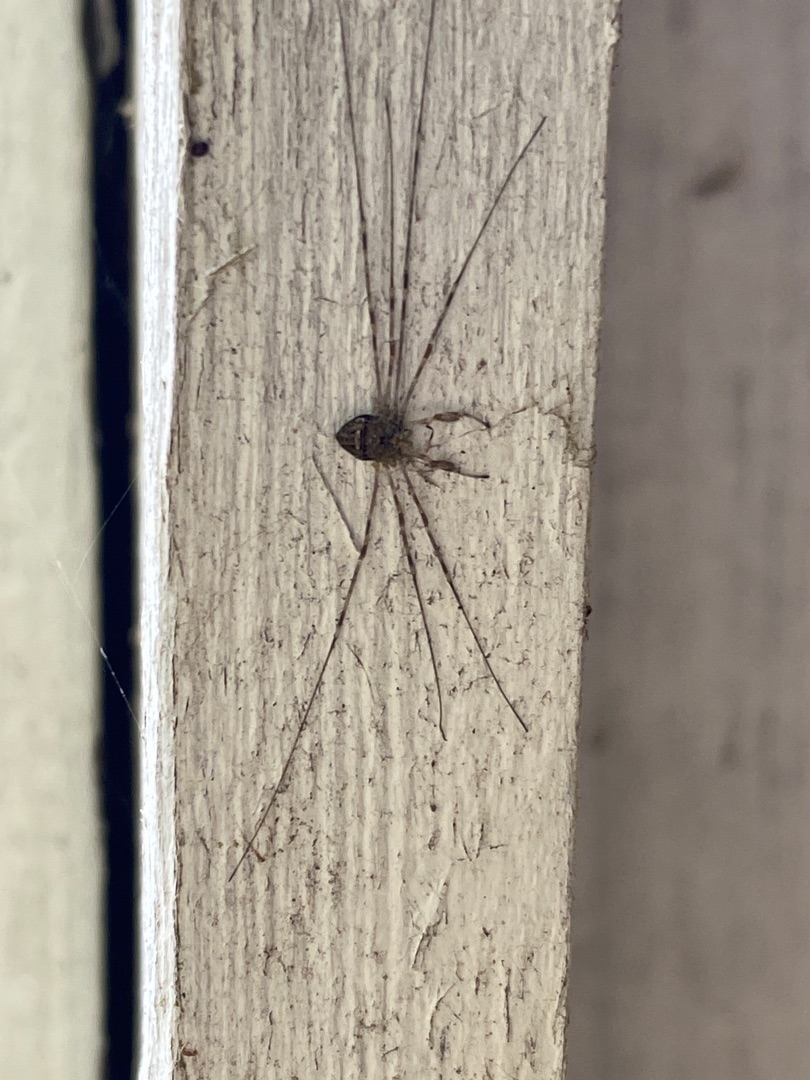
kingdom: Animalia
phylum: Arthropoda
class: Arachnida
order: Opiliones
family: Phalangiidae
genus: Dicranopalpus
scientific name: Dicranopalpus ramosus
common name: Gaffelmejer
